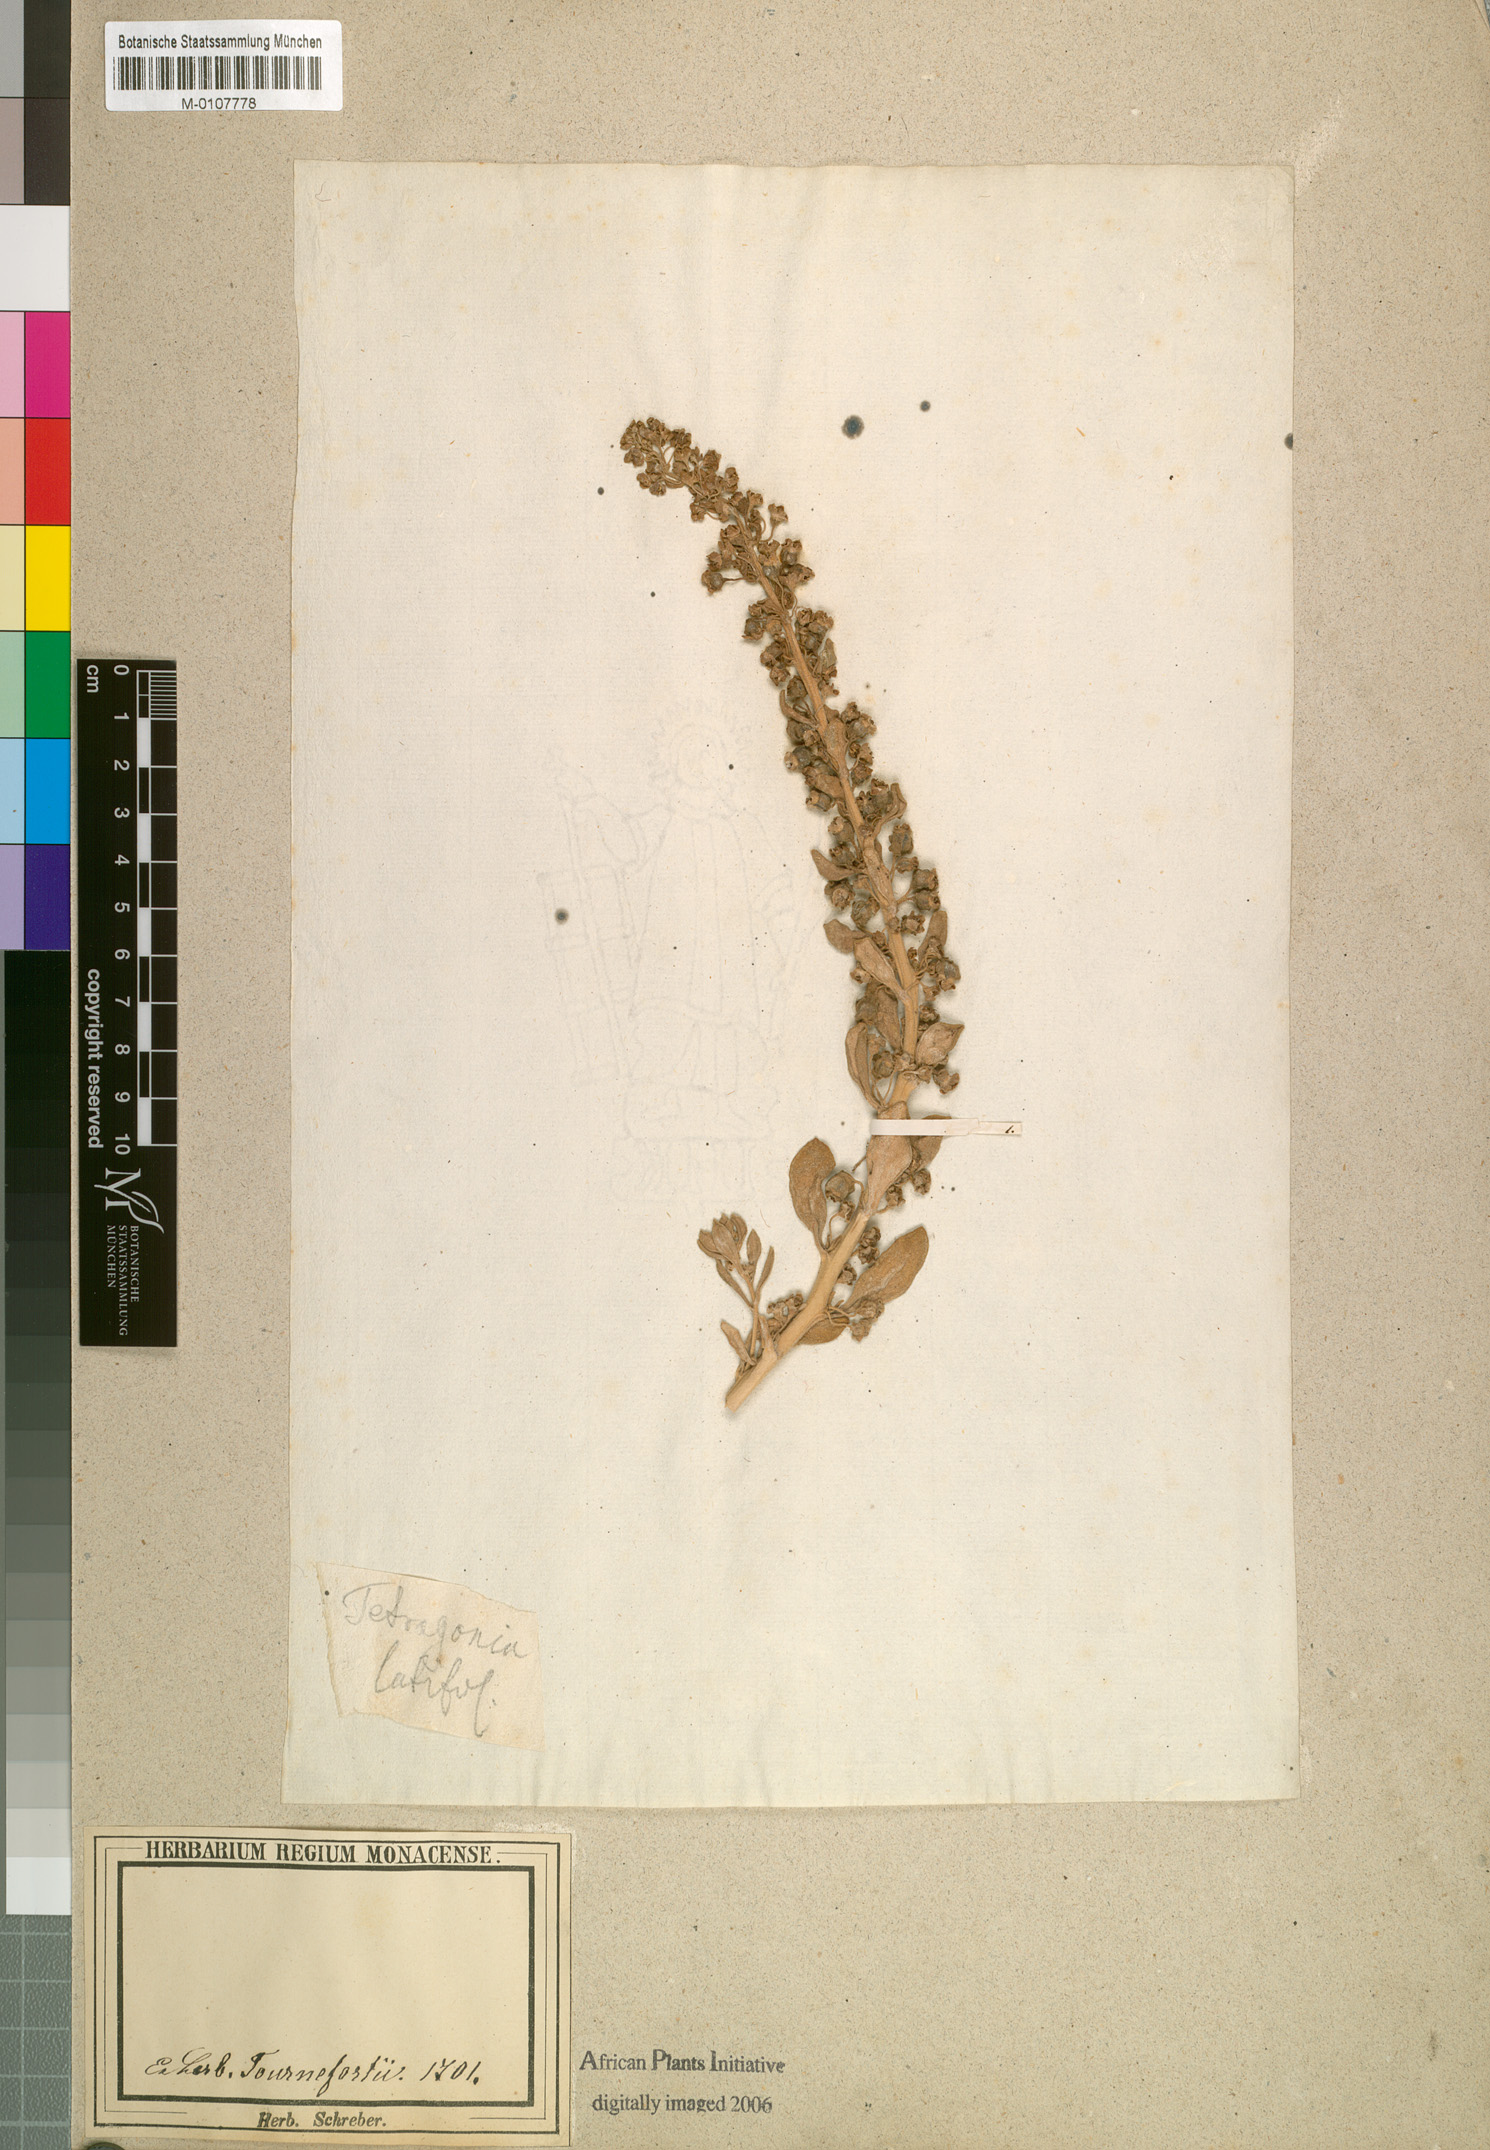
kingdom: Plantae
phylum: Tracheophyta
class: Magnoliopsida
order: Laurales
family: Lauraceae
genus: Neolitsea
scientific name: Neolitsea papuana
